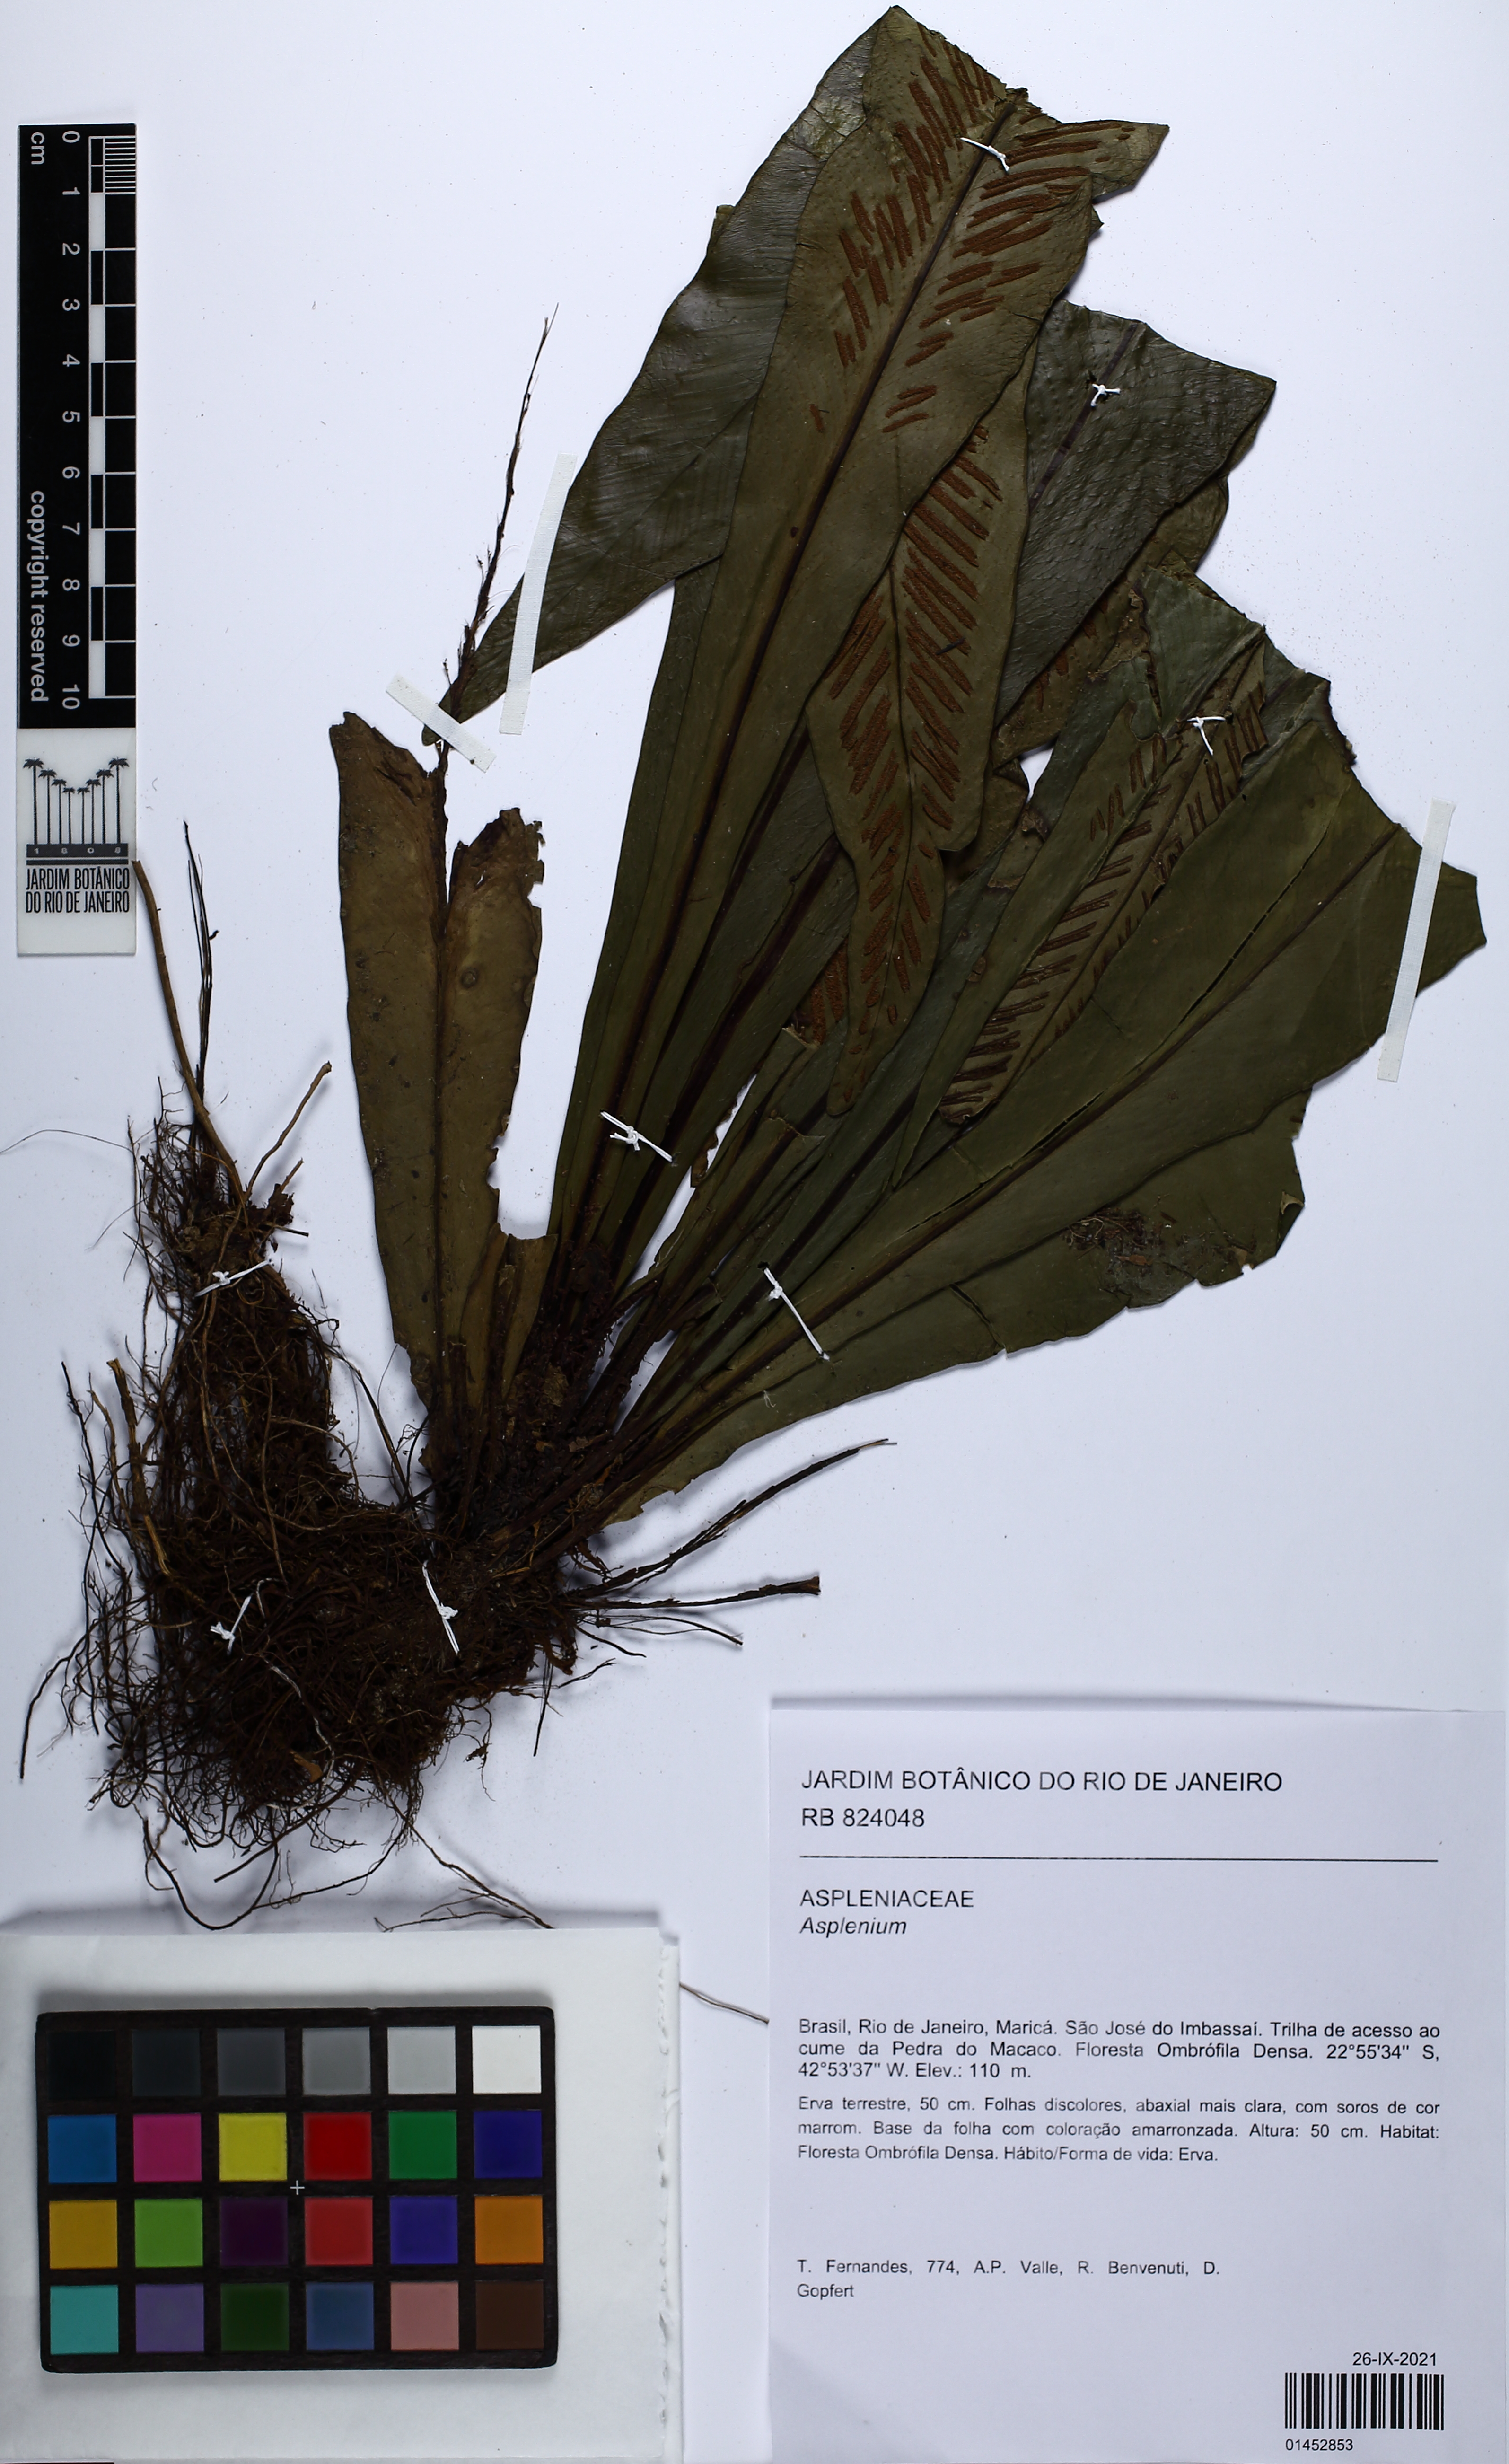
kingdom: Plantae
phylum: Tracheophyta
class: Polypodiopsida
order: Polypodiales
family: Aspleniaceae
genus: Asplenium
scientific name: Asplenium brasiliense
